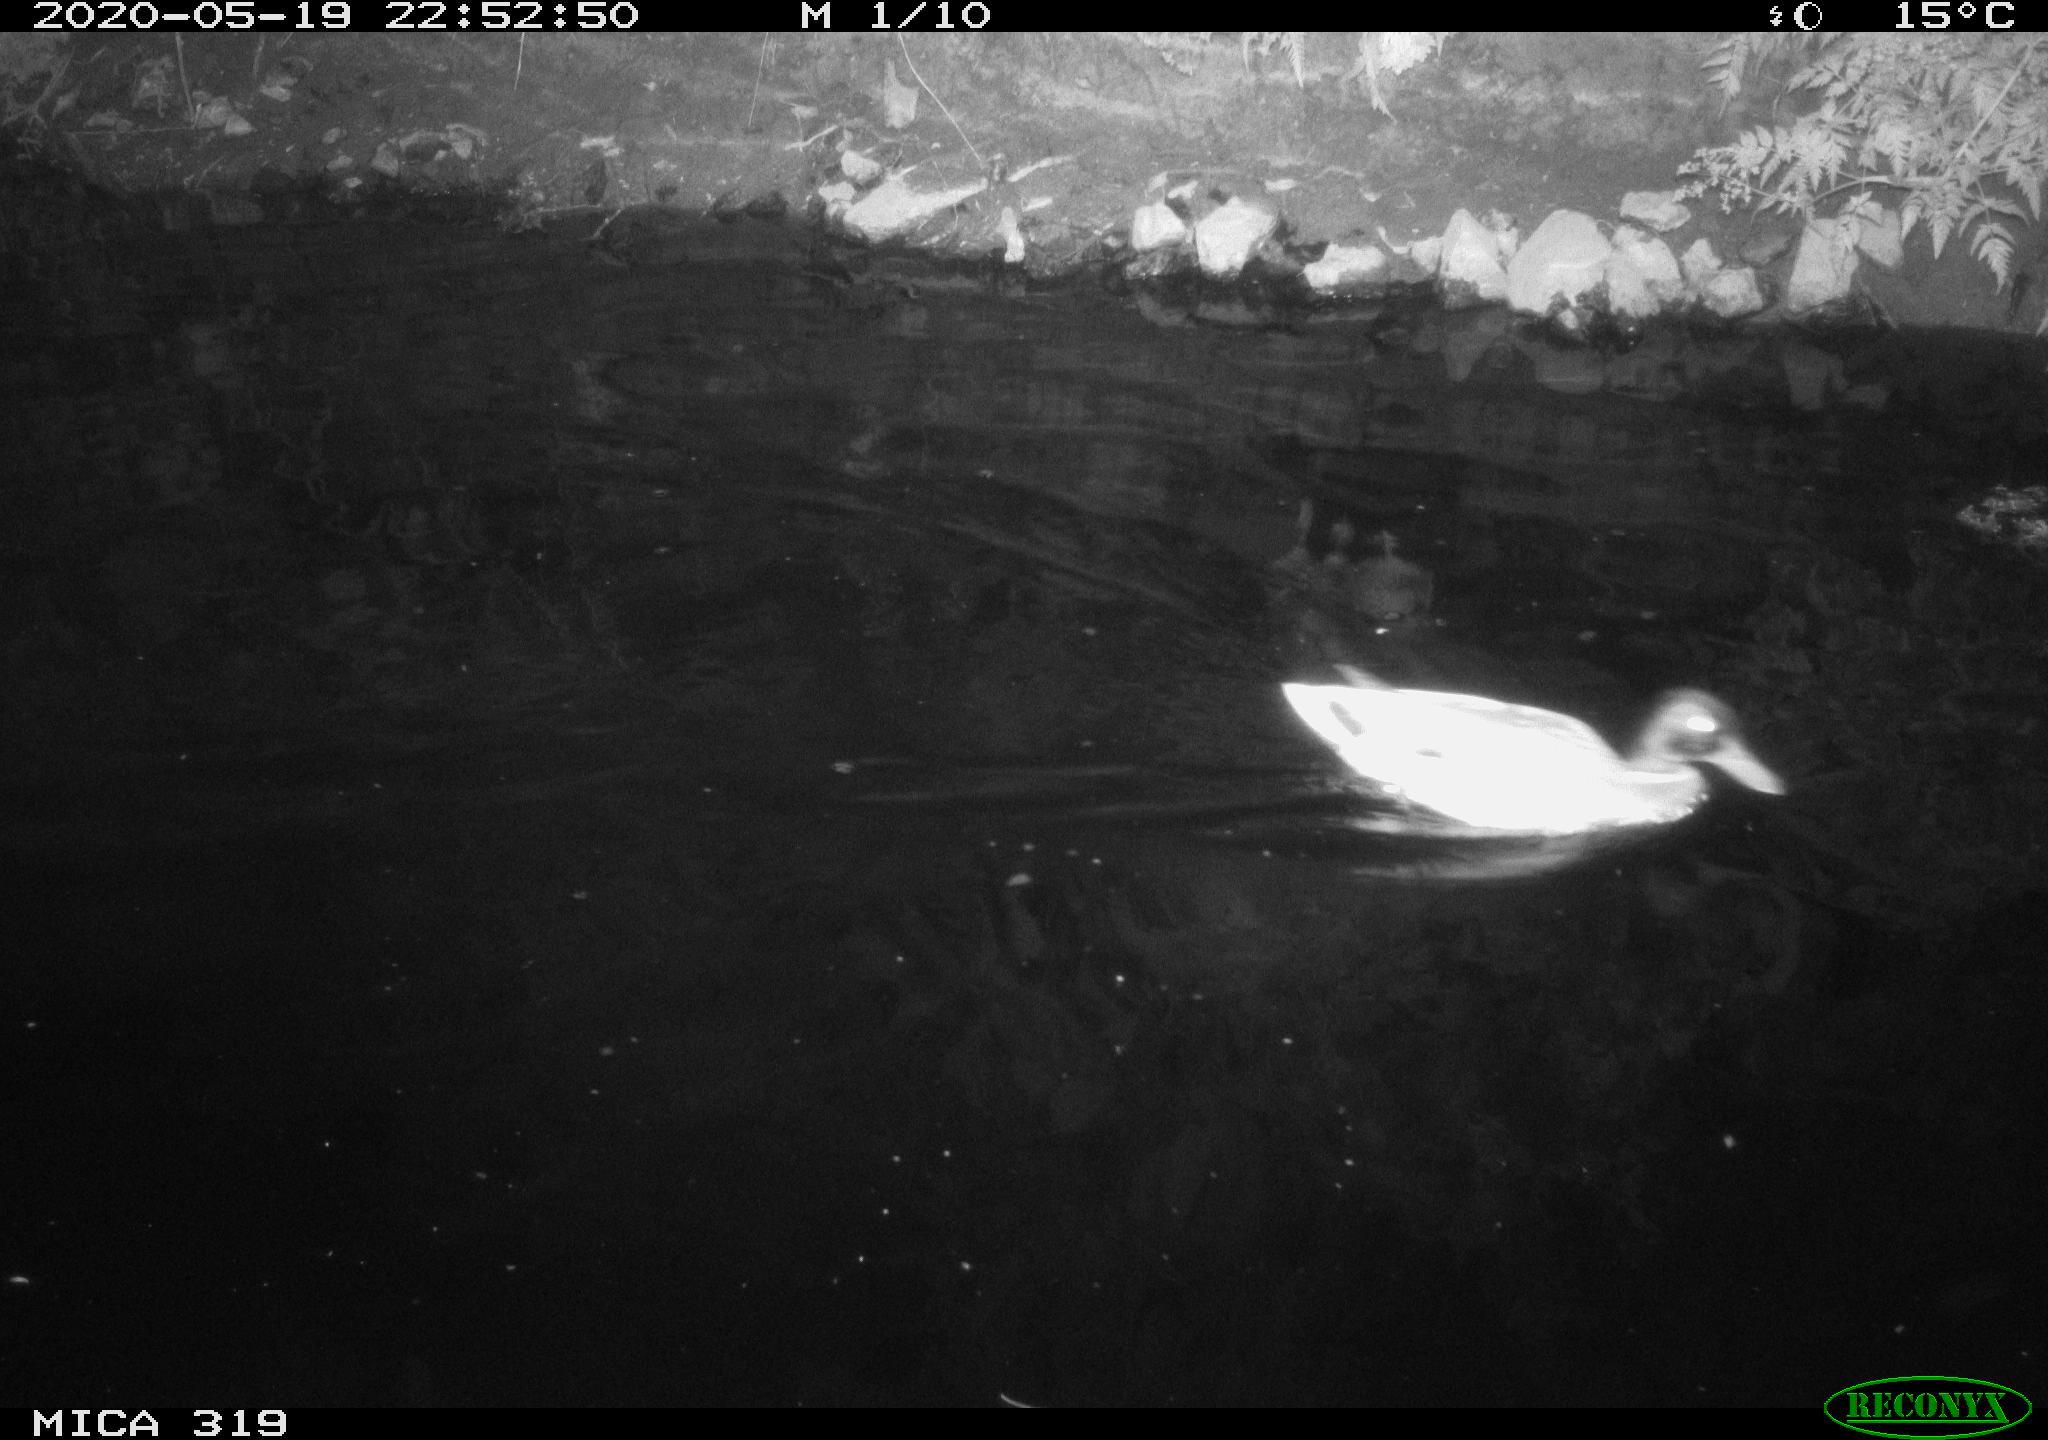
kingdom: Animalia
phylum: Chordata
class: Aves
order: Anseriformes
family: Anatidae
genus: Anas
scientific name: Anas platyrhynchos
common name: Mallard
